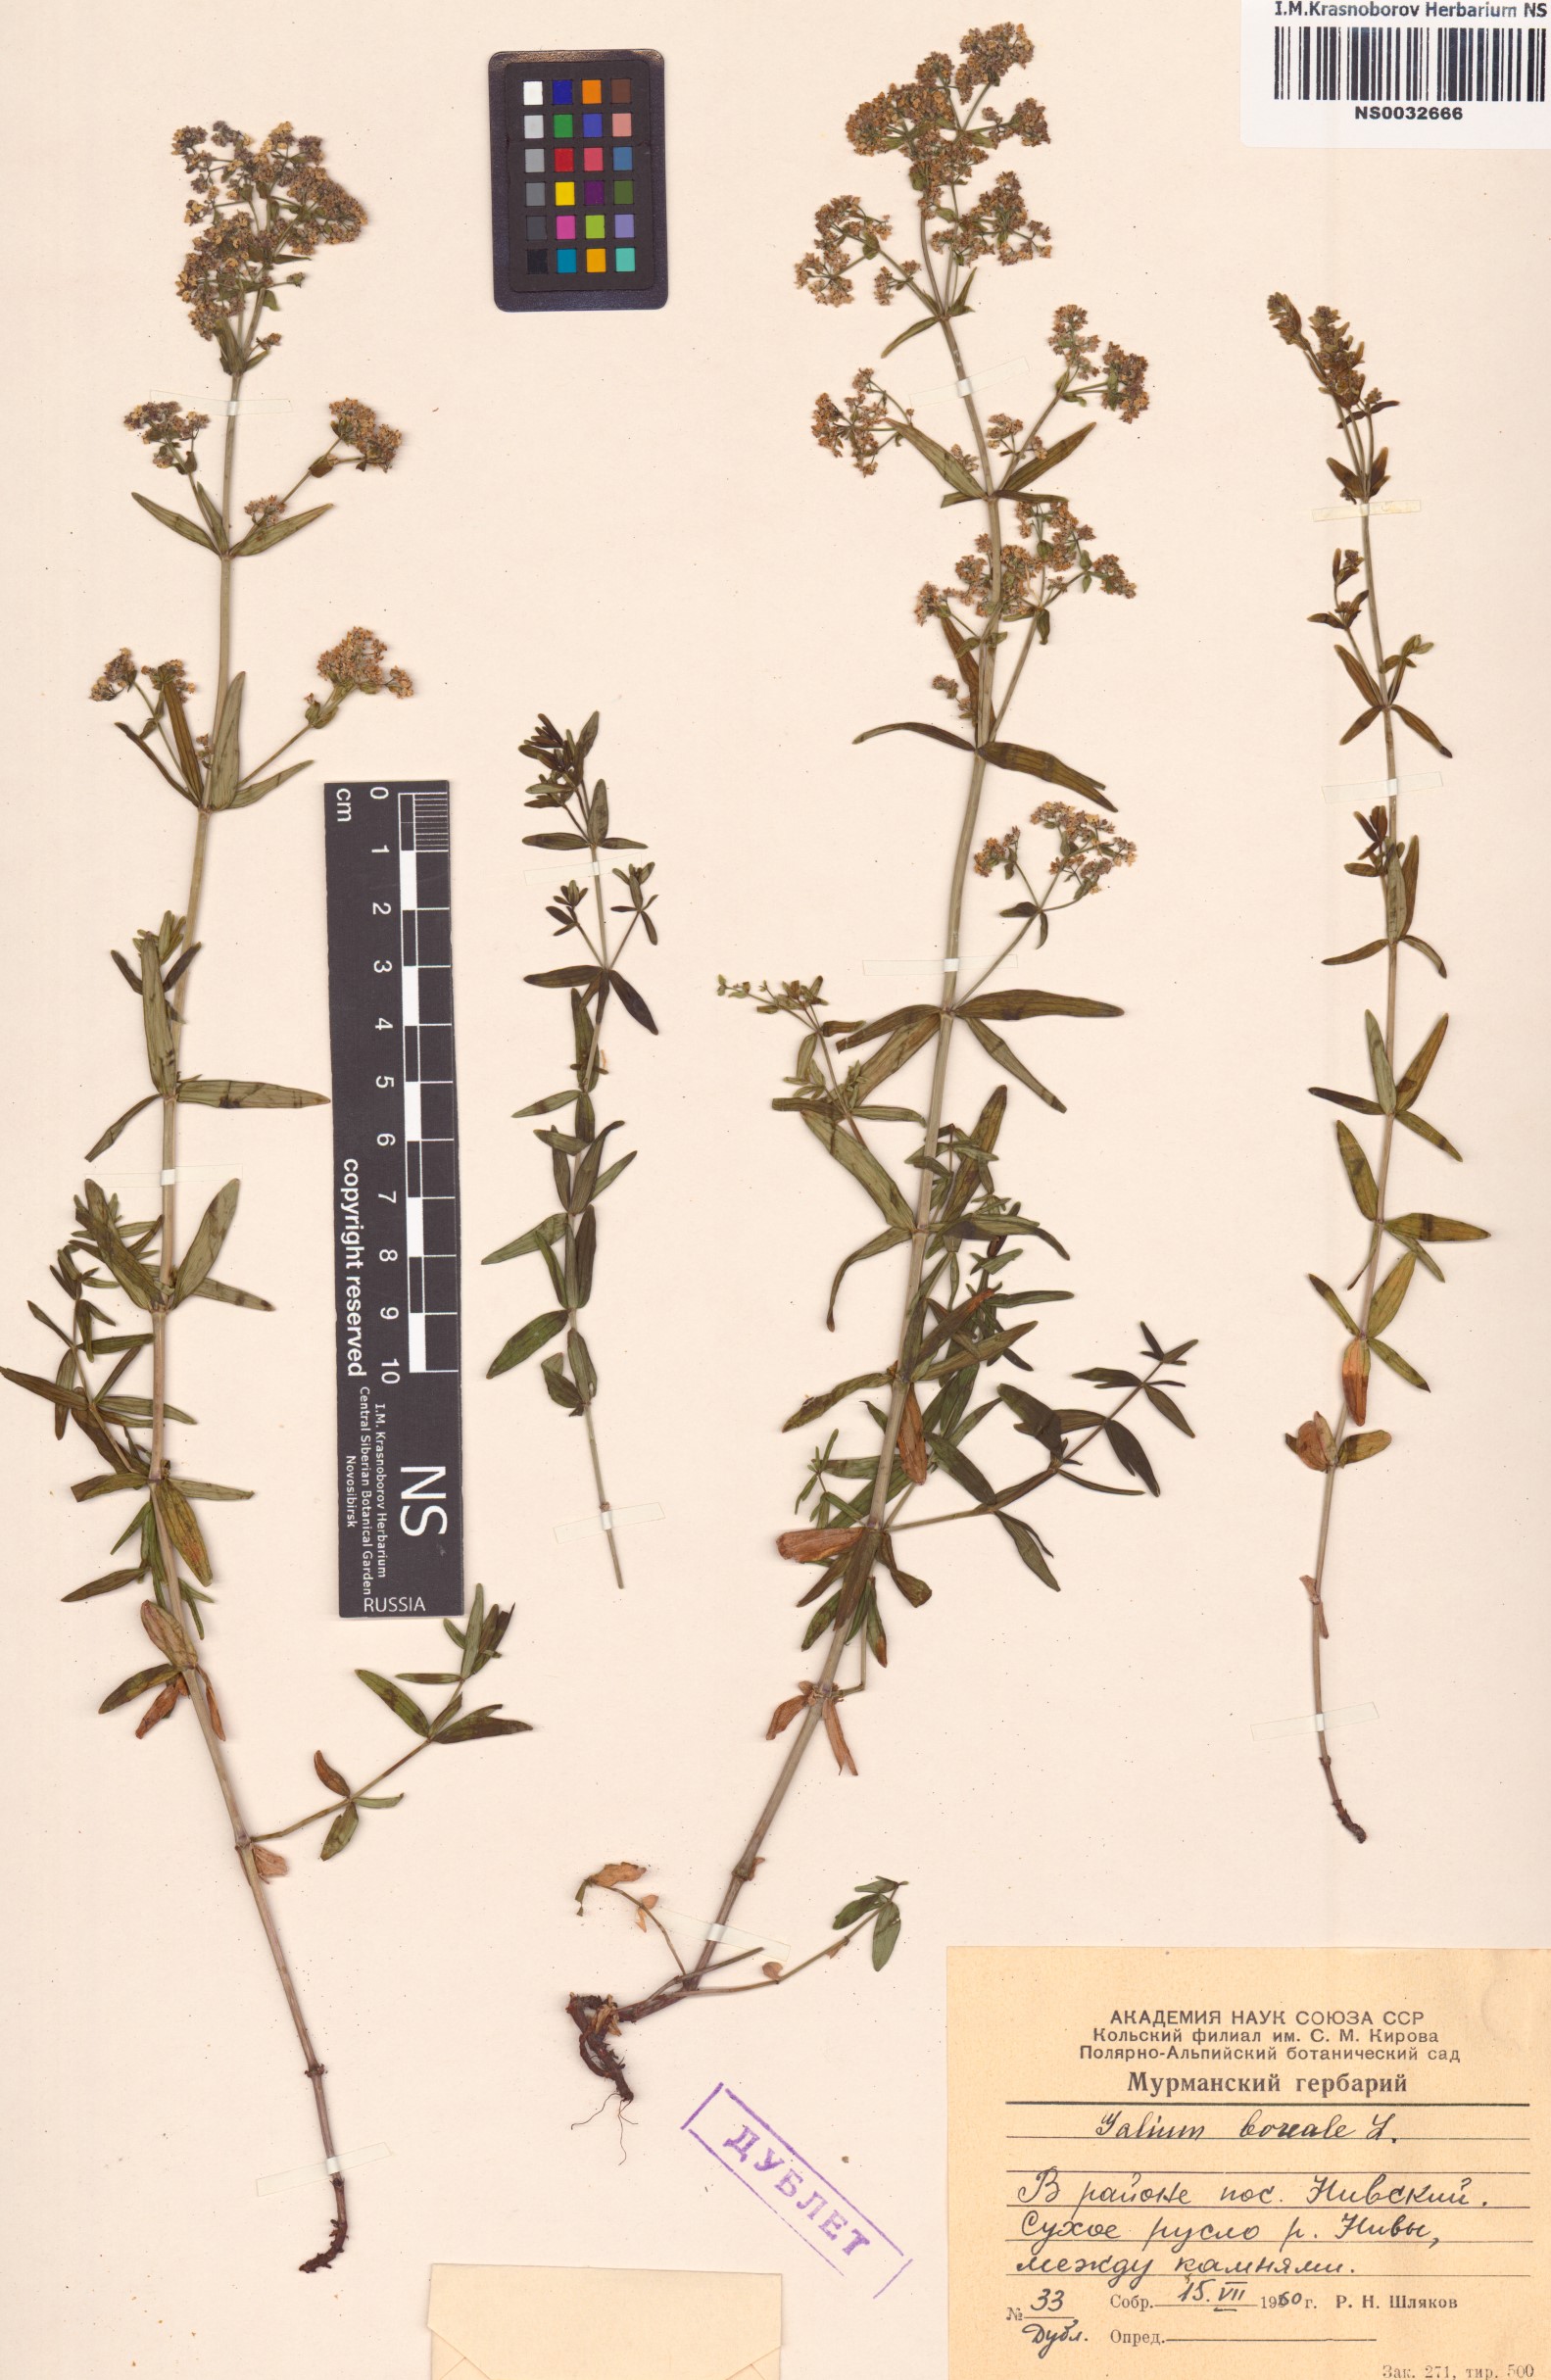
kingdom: Plantae
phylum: Tracheophyta
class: Magnoliopsida
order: Gentianales
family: Rubiaceae
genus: Galium
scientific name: Galium boreale
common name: Northern bedstraw
